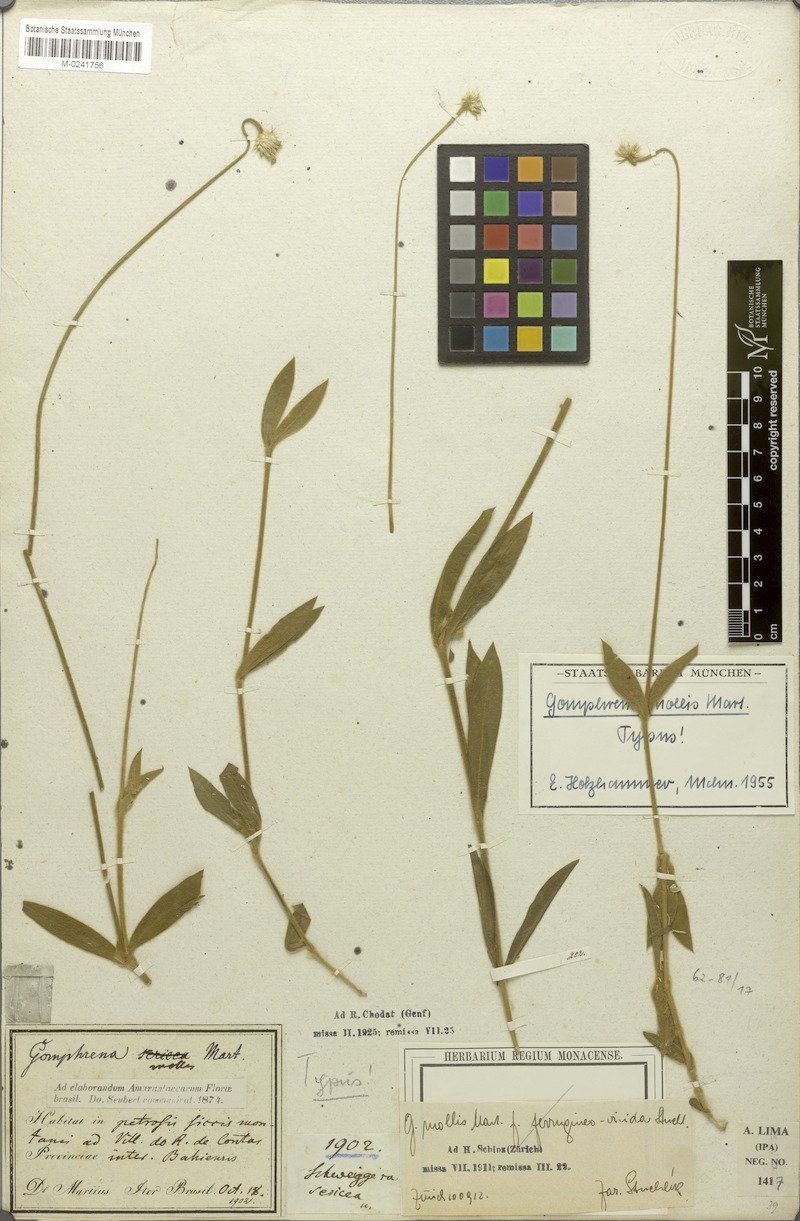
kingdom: Plantae
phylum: Tracheophyta
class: Magnoliopsida
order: Caryophyllales
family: Amaranthaceae
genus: Gomphrena
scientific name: Gomphrena mollis
